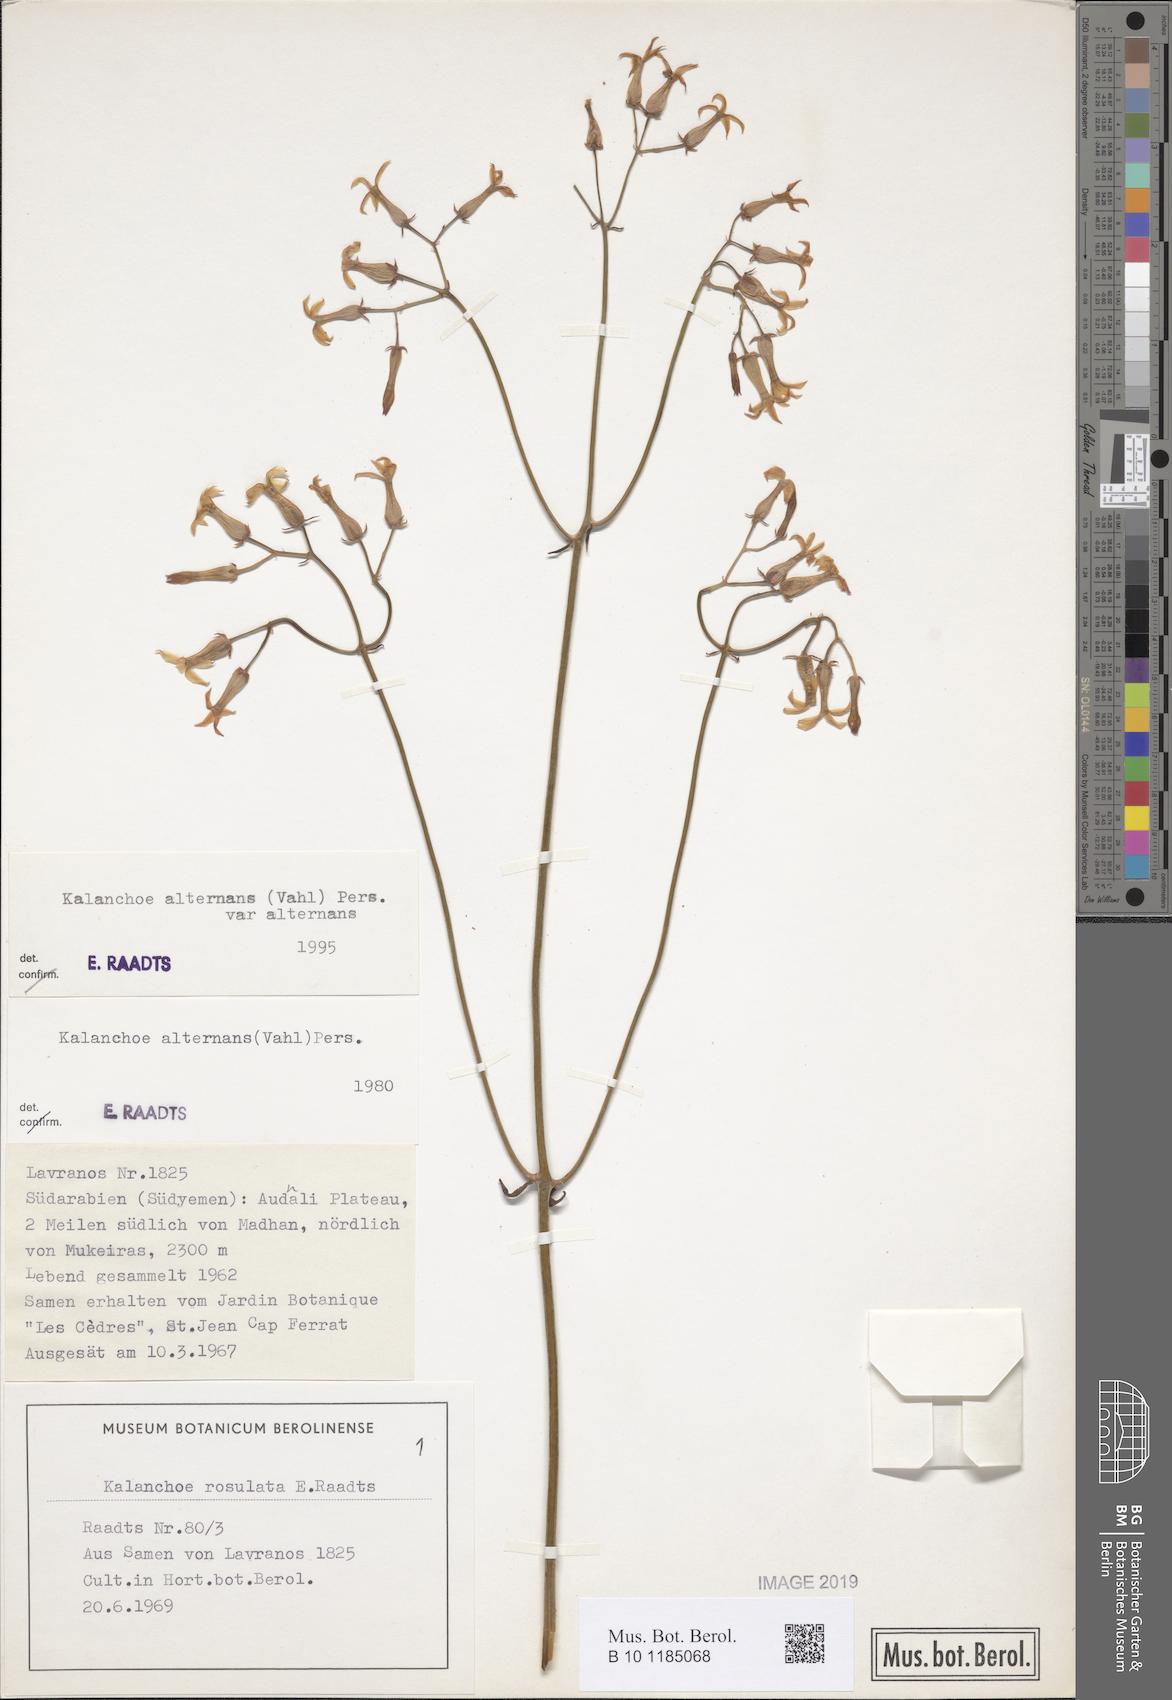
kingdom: Plantae
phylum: Tracheophyta
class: Magnoliopsida
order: Saxifragales
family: Crassulaceae
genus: Kalanchoe
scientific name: Kalanchoe alternans
